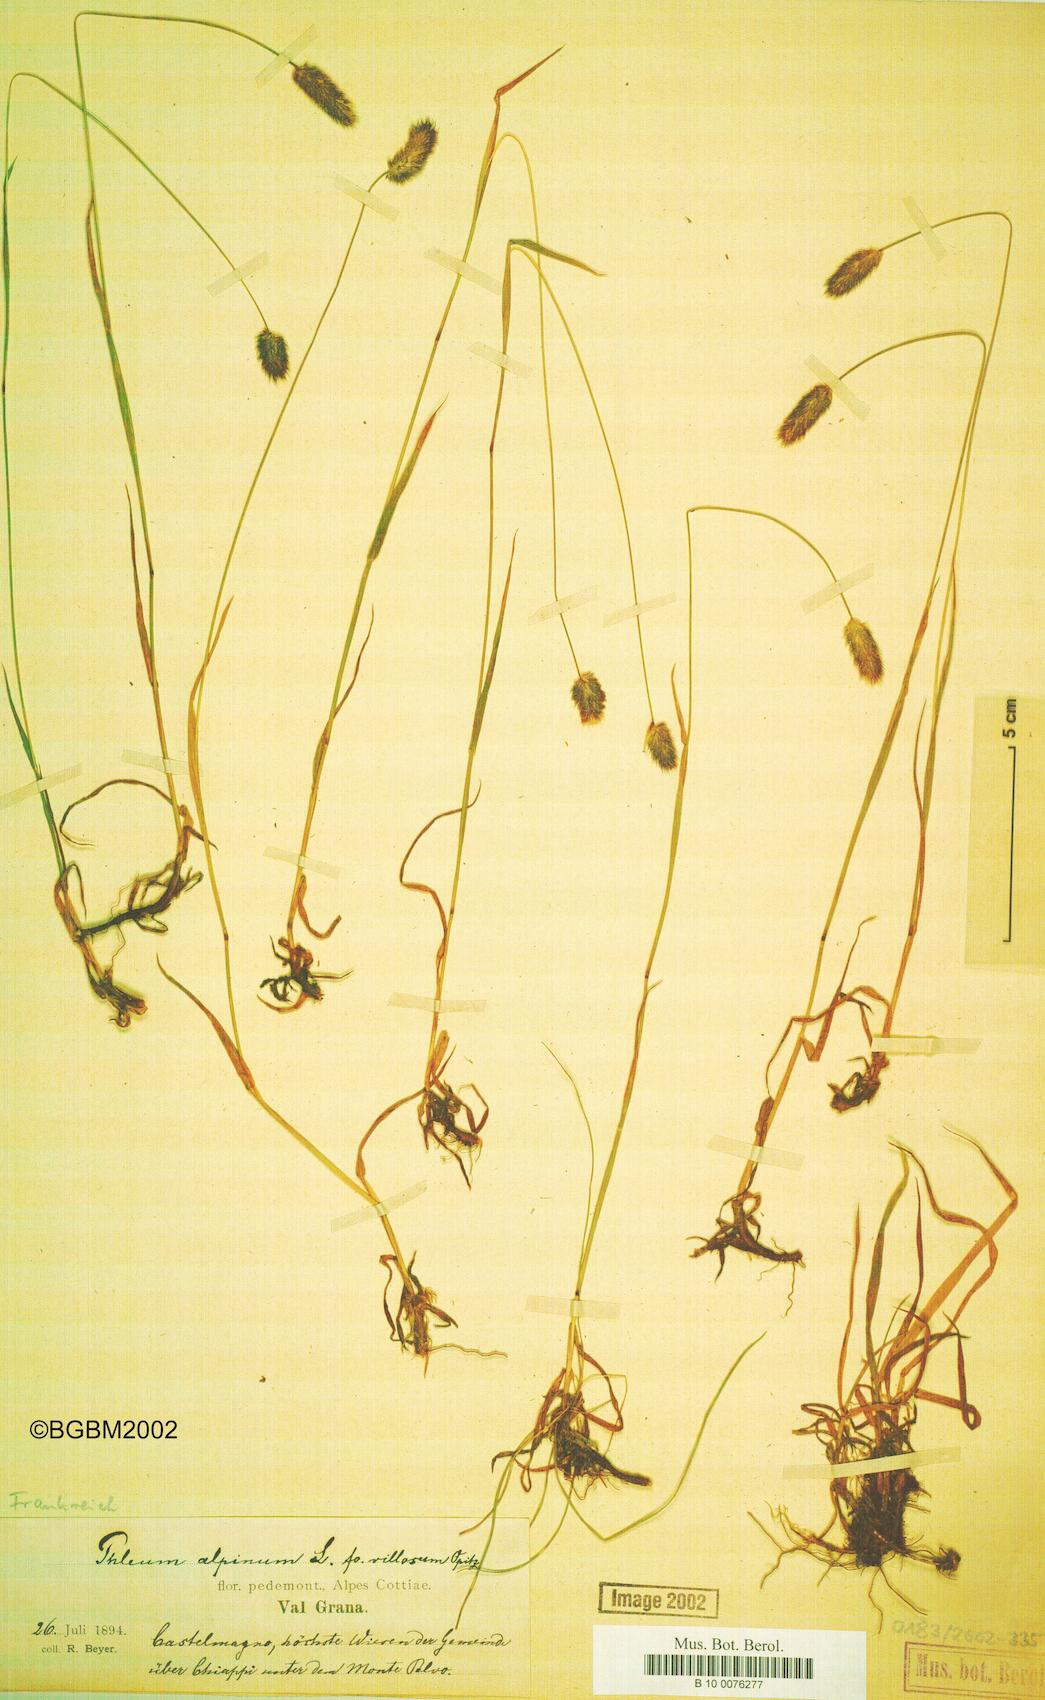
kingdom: Plantae
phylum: Tracheophyta
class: Liliopsida
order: Poales
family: Poaceae
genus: Phleum
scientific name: Phleum alpinum
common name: Alpine cat's-tail
